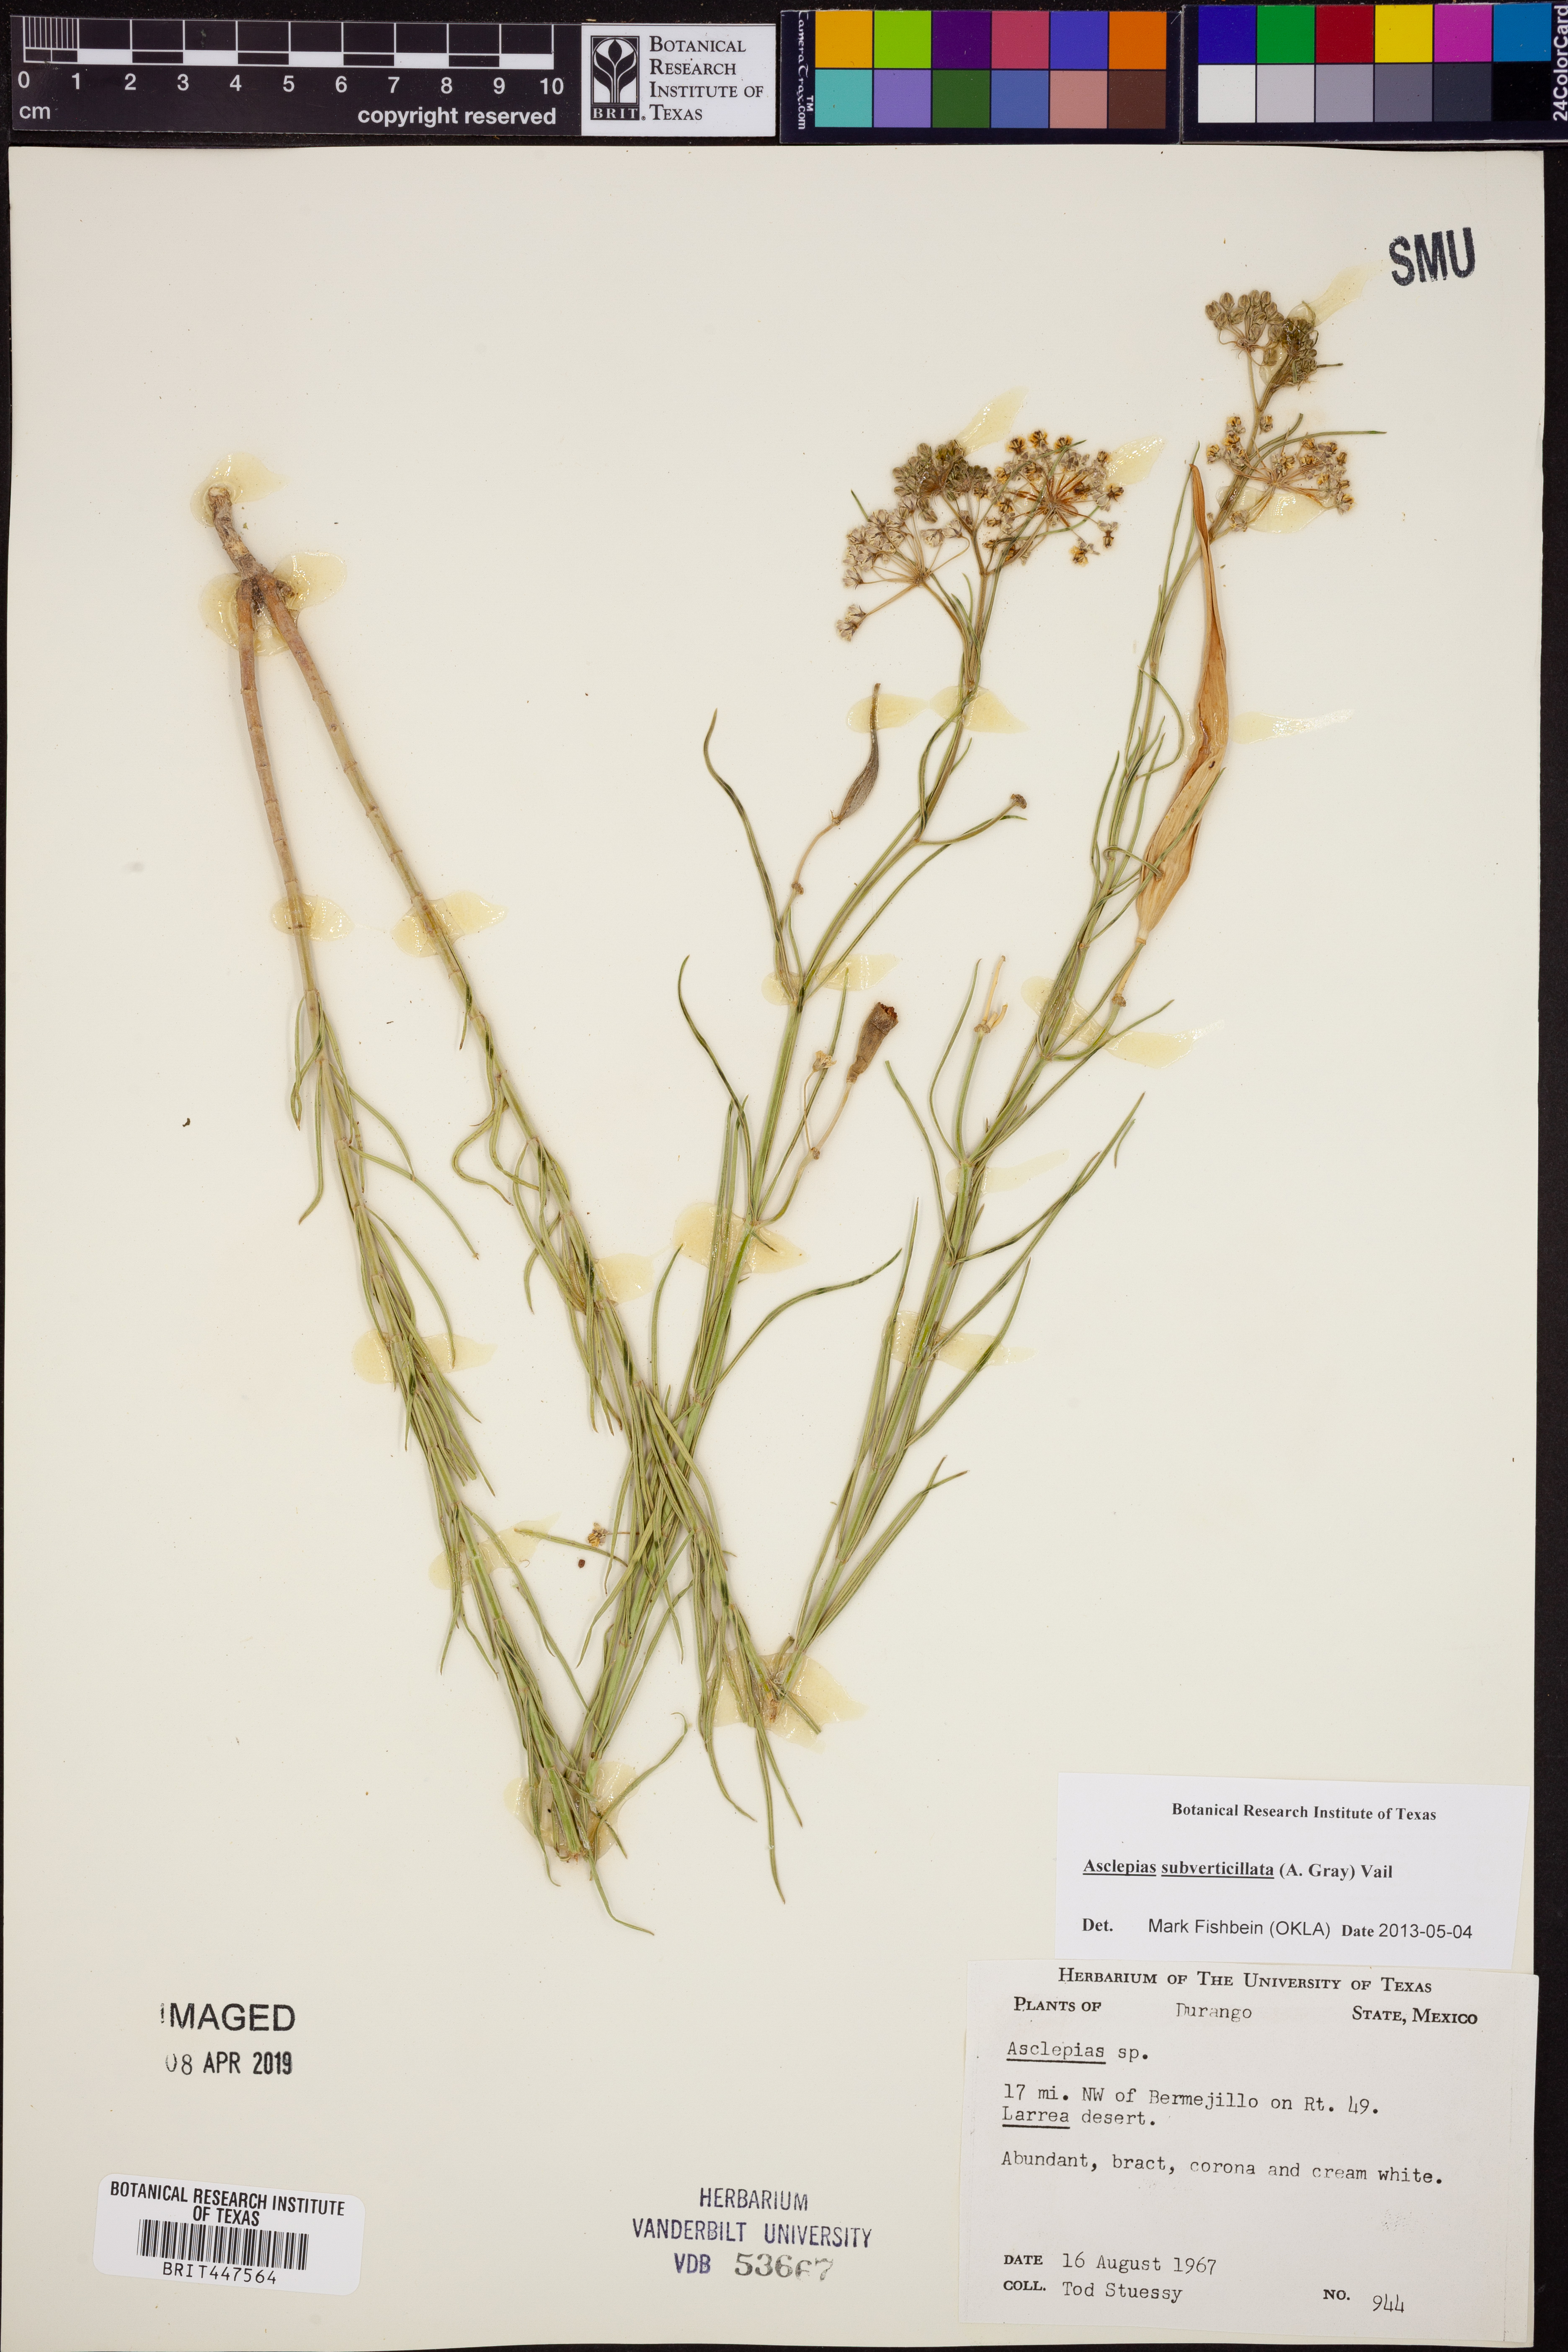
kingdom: Plantae
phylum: Tracheophyta
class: Magnoliopsida
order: Gentianales
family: Apocynaceae
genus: Asclepias
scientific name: Asclepias subverticillata
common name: Horsetail milkweed
